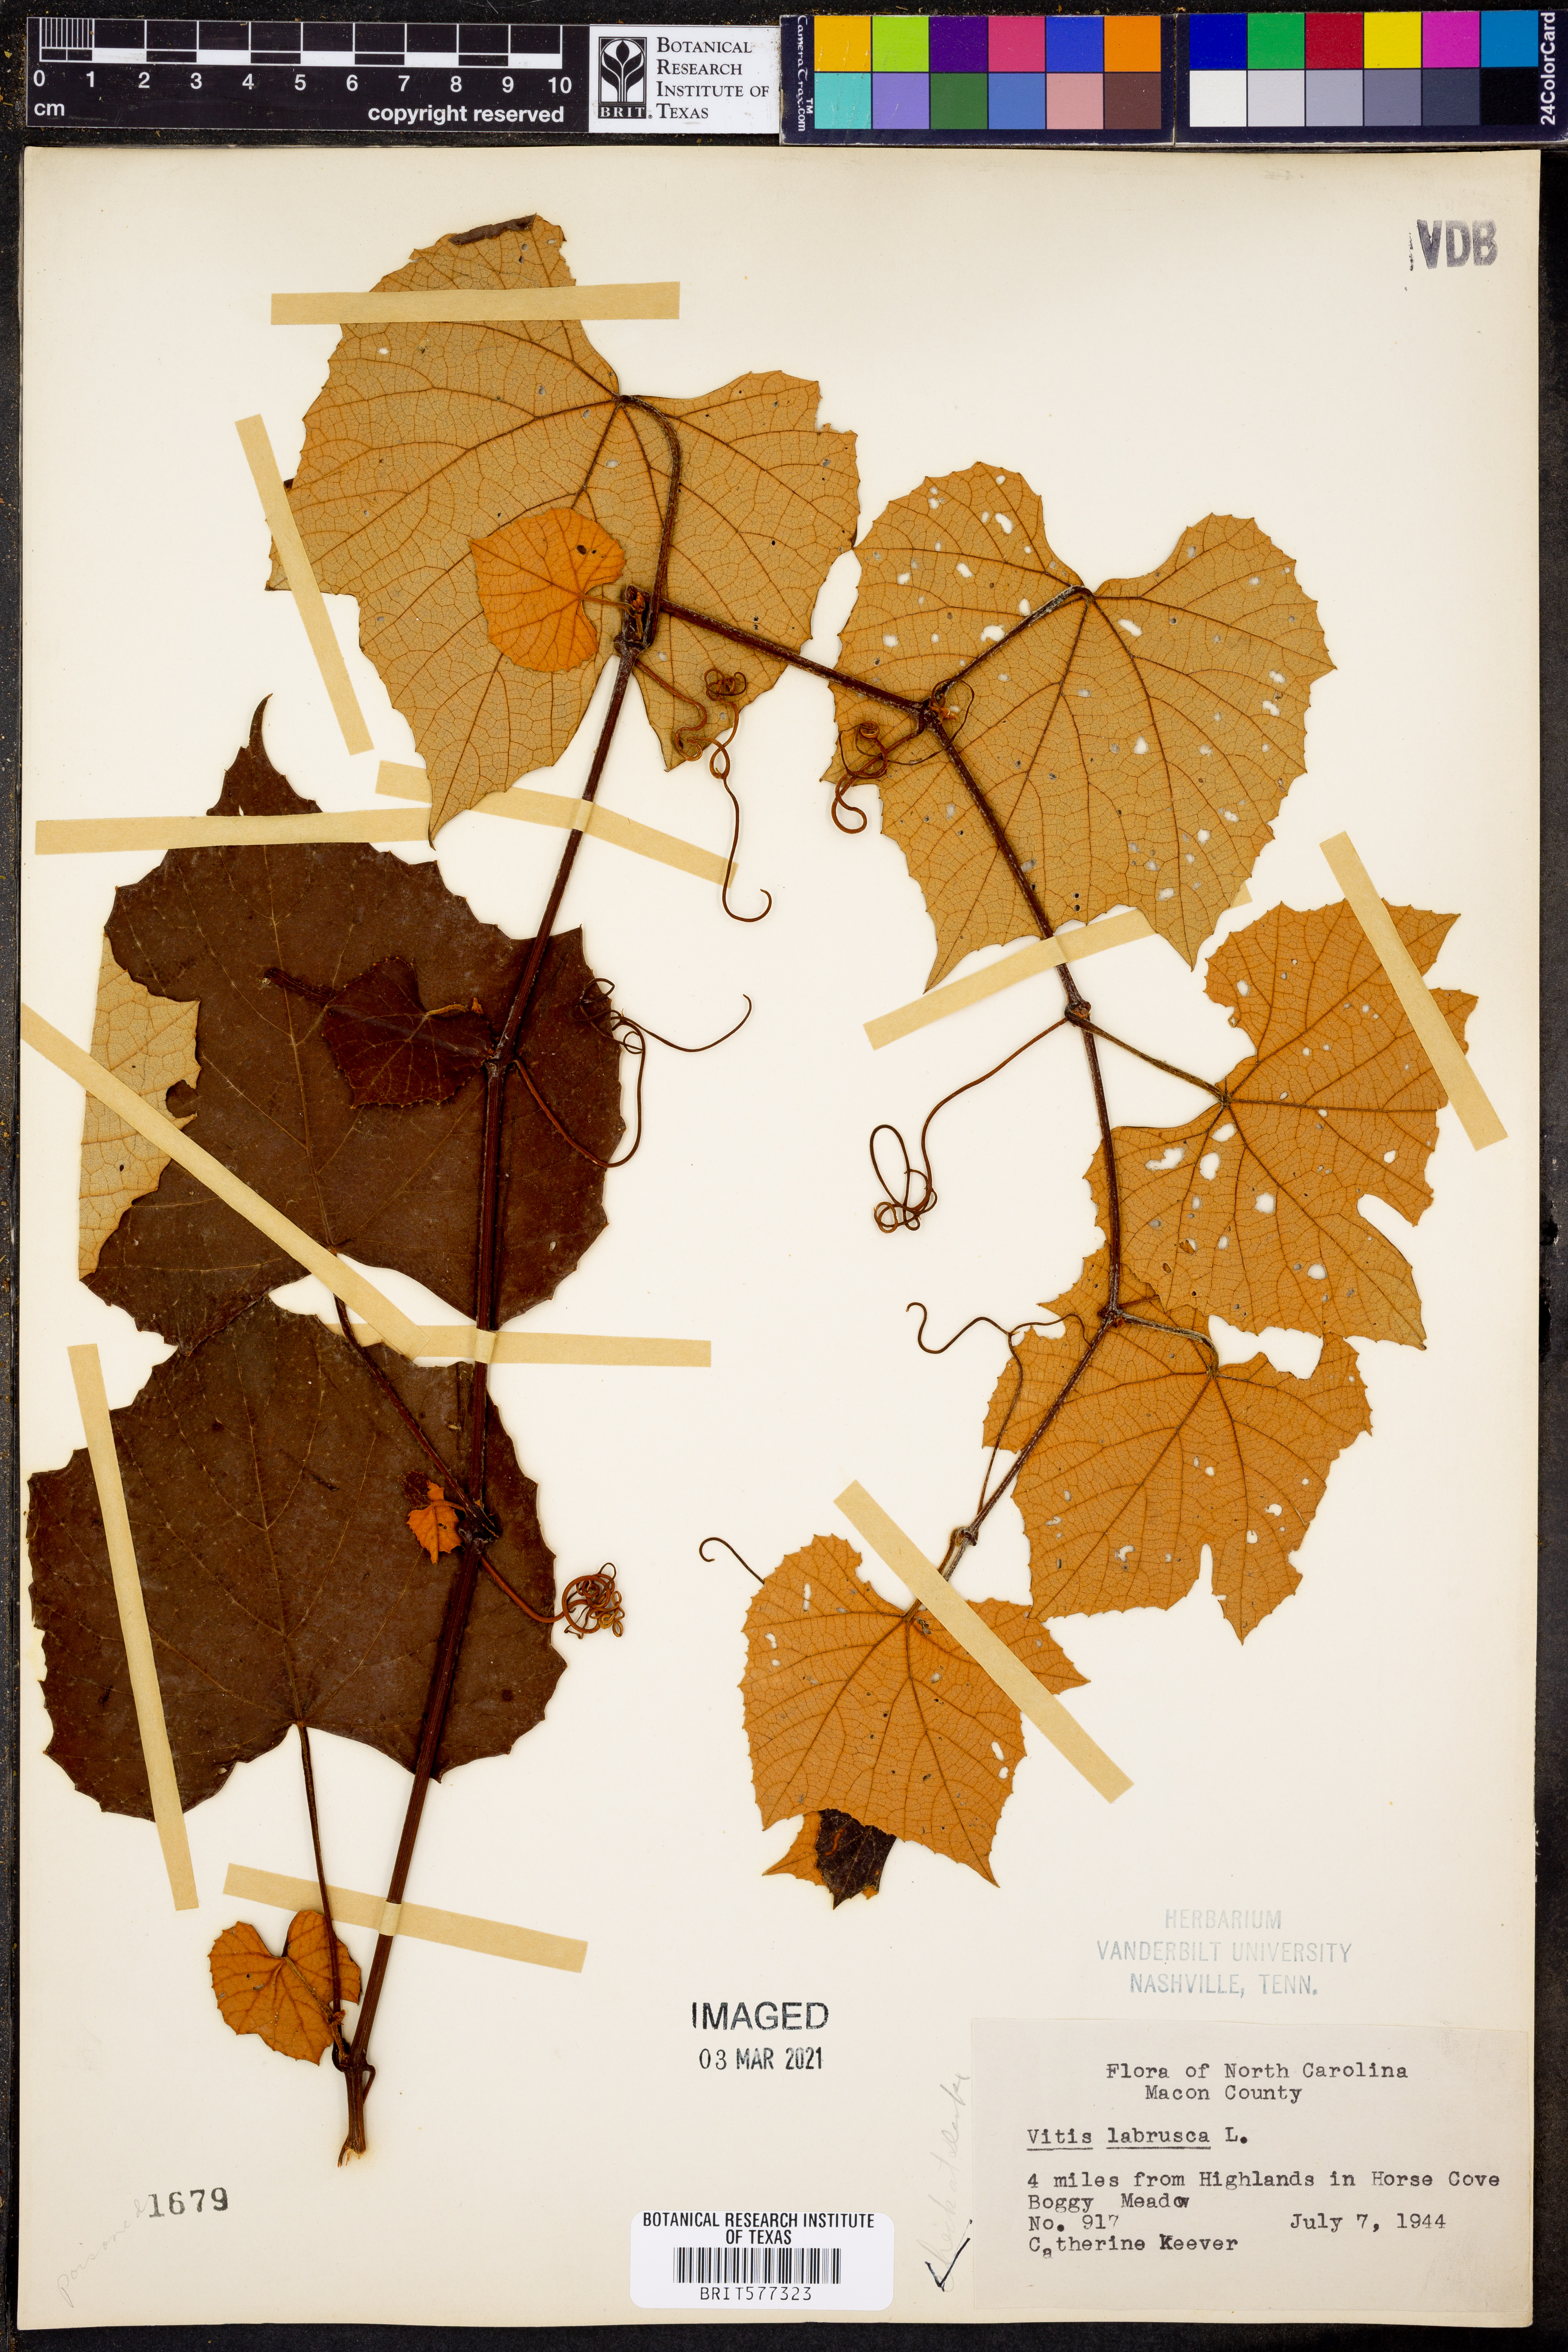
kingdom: Plantae
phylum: Tracheophyta
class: Magnoliopsida
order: Vitales
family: Vitaceae
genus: Vitis
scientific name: Vitis labrusca
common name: Concord grape
